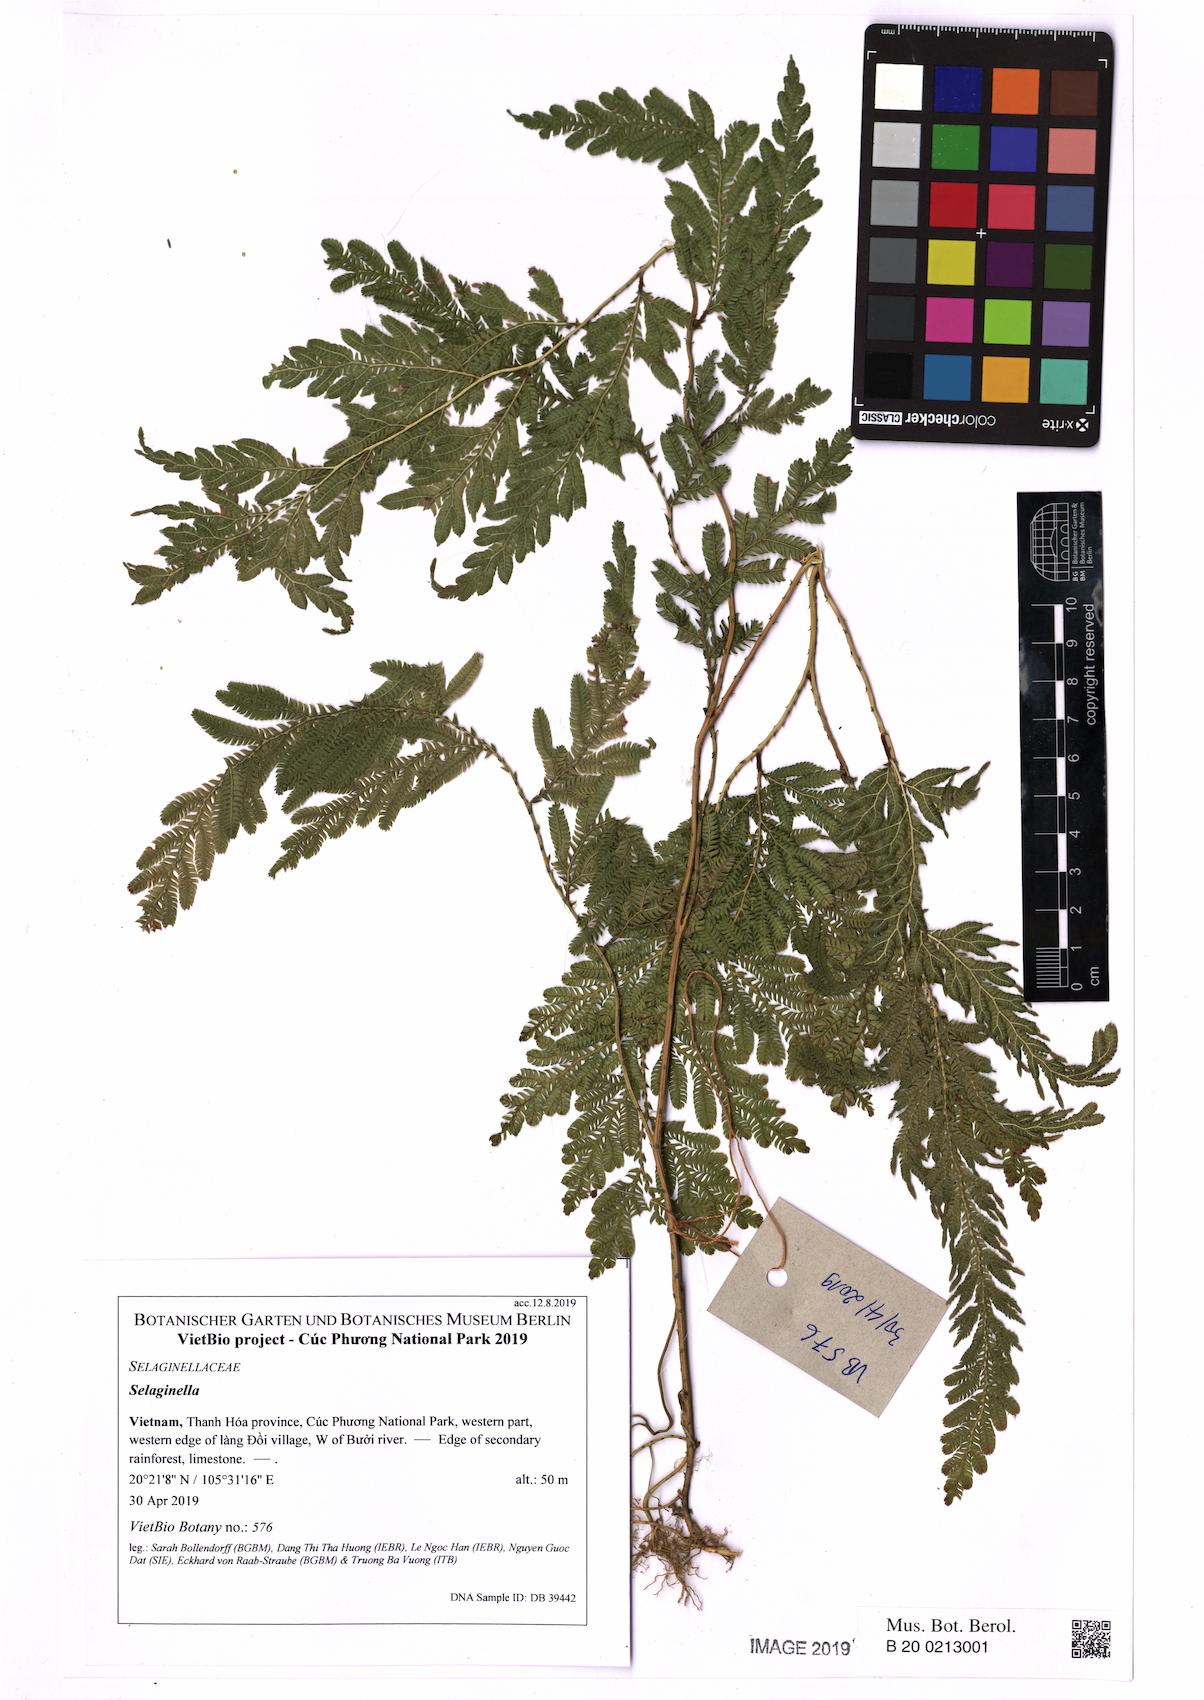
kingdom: Plantae
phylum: Tracheophyta
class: Lycopodiopsida
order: Selaginellales
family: Selaginellaceae
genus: Selaginella
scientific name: Selaginella
